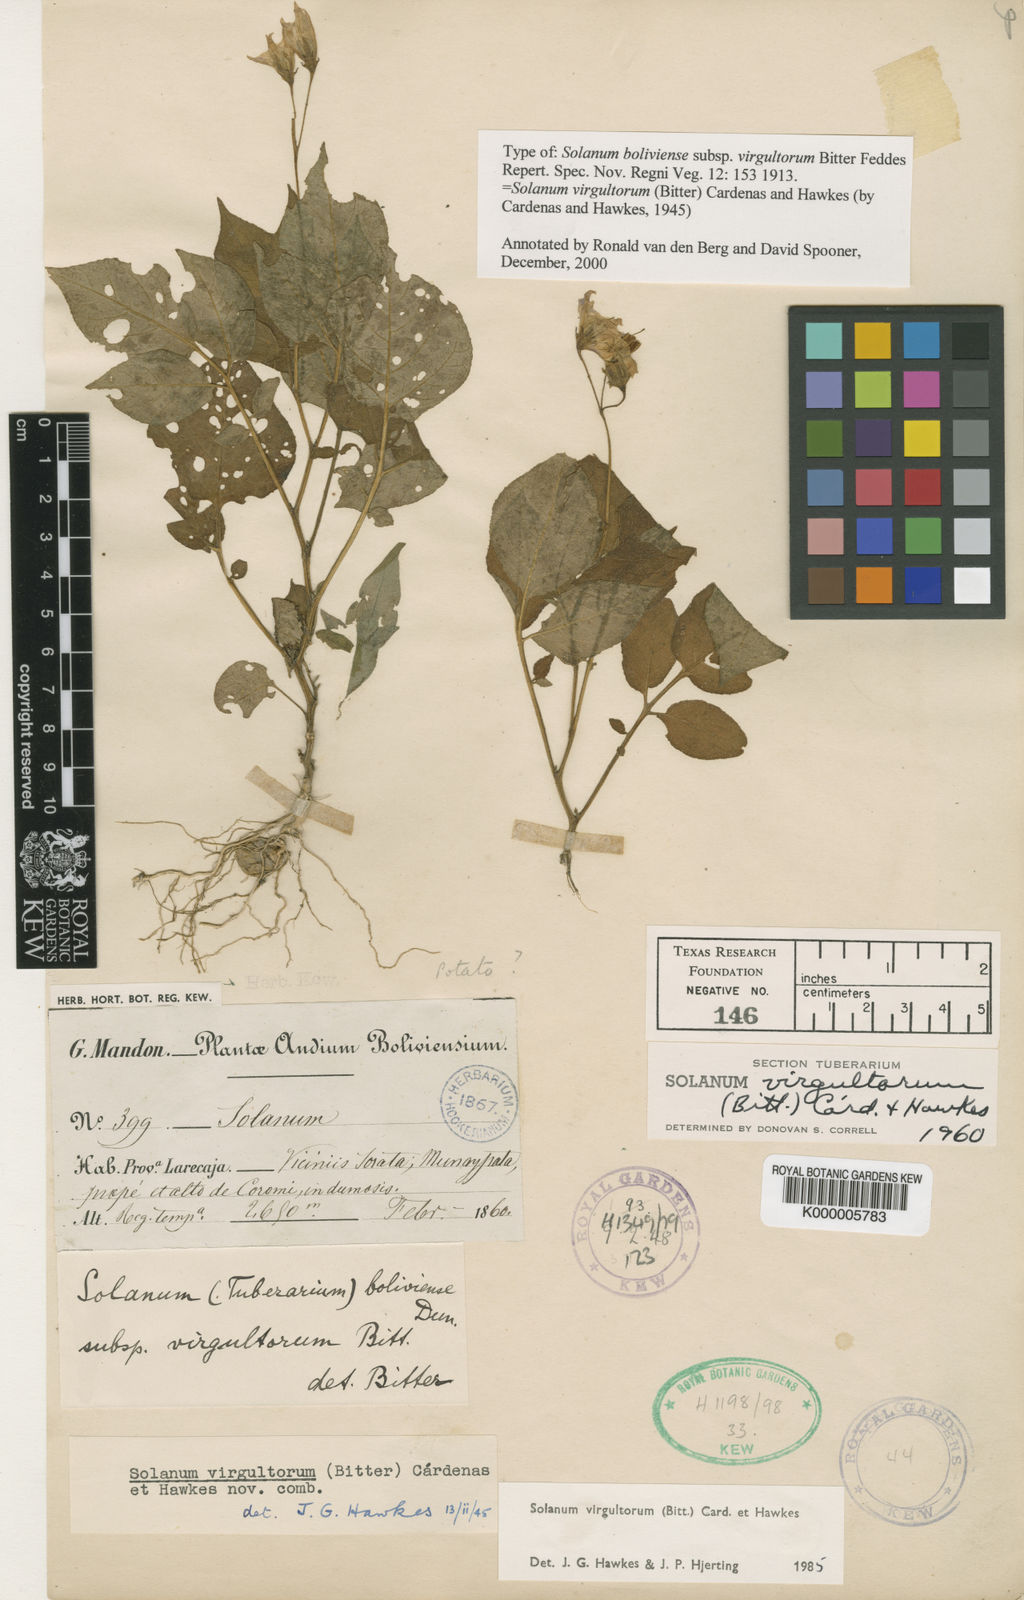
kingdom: Plantae
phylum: Tracheophyta
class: Magnoliopsida
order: Solanales
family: Solanaceae
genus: Solanum
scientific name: Solanum boliviense
